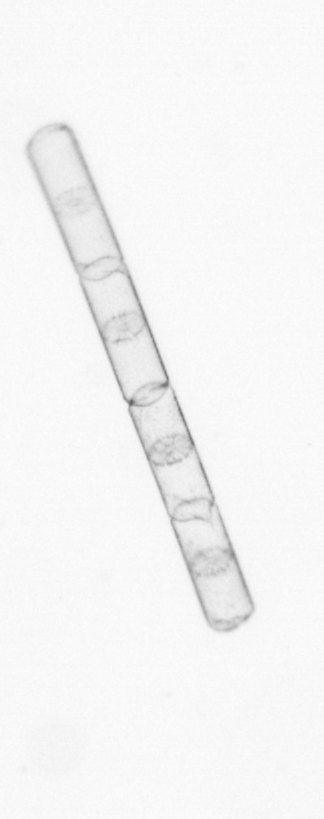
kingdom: Chromista
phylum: Ochrophyta
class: Bacillariophyceae
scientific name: Bacillariophyceae
